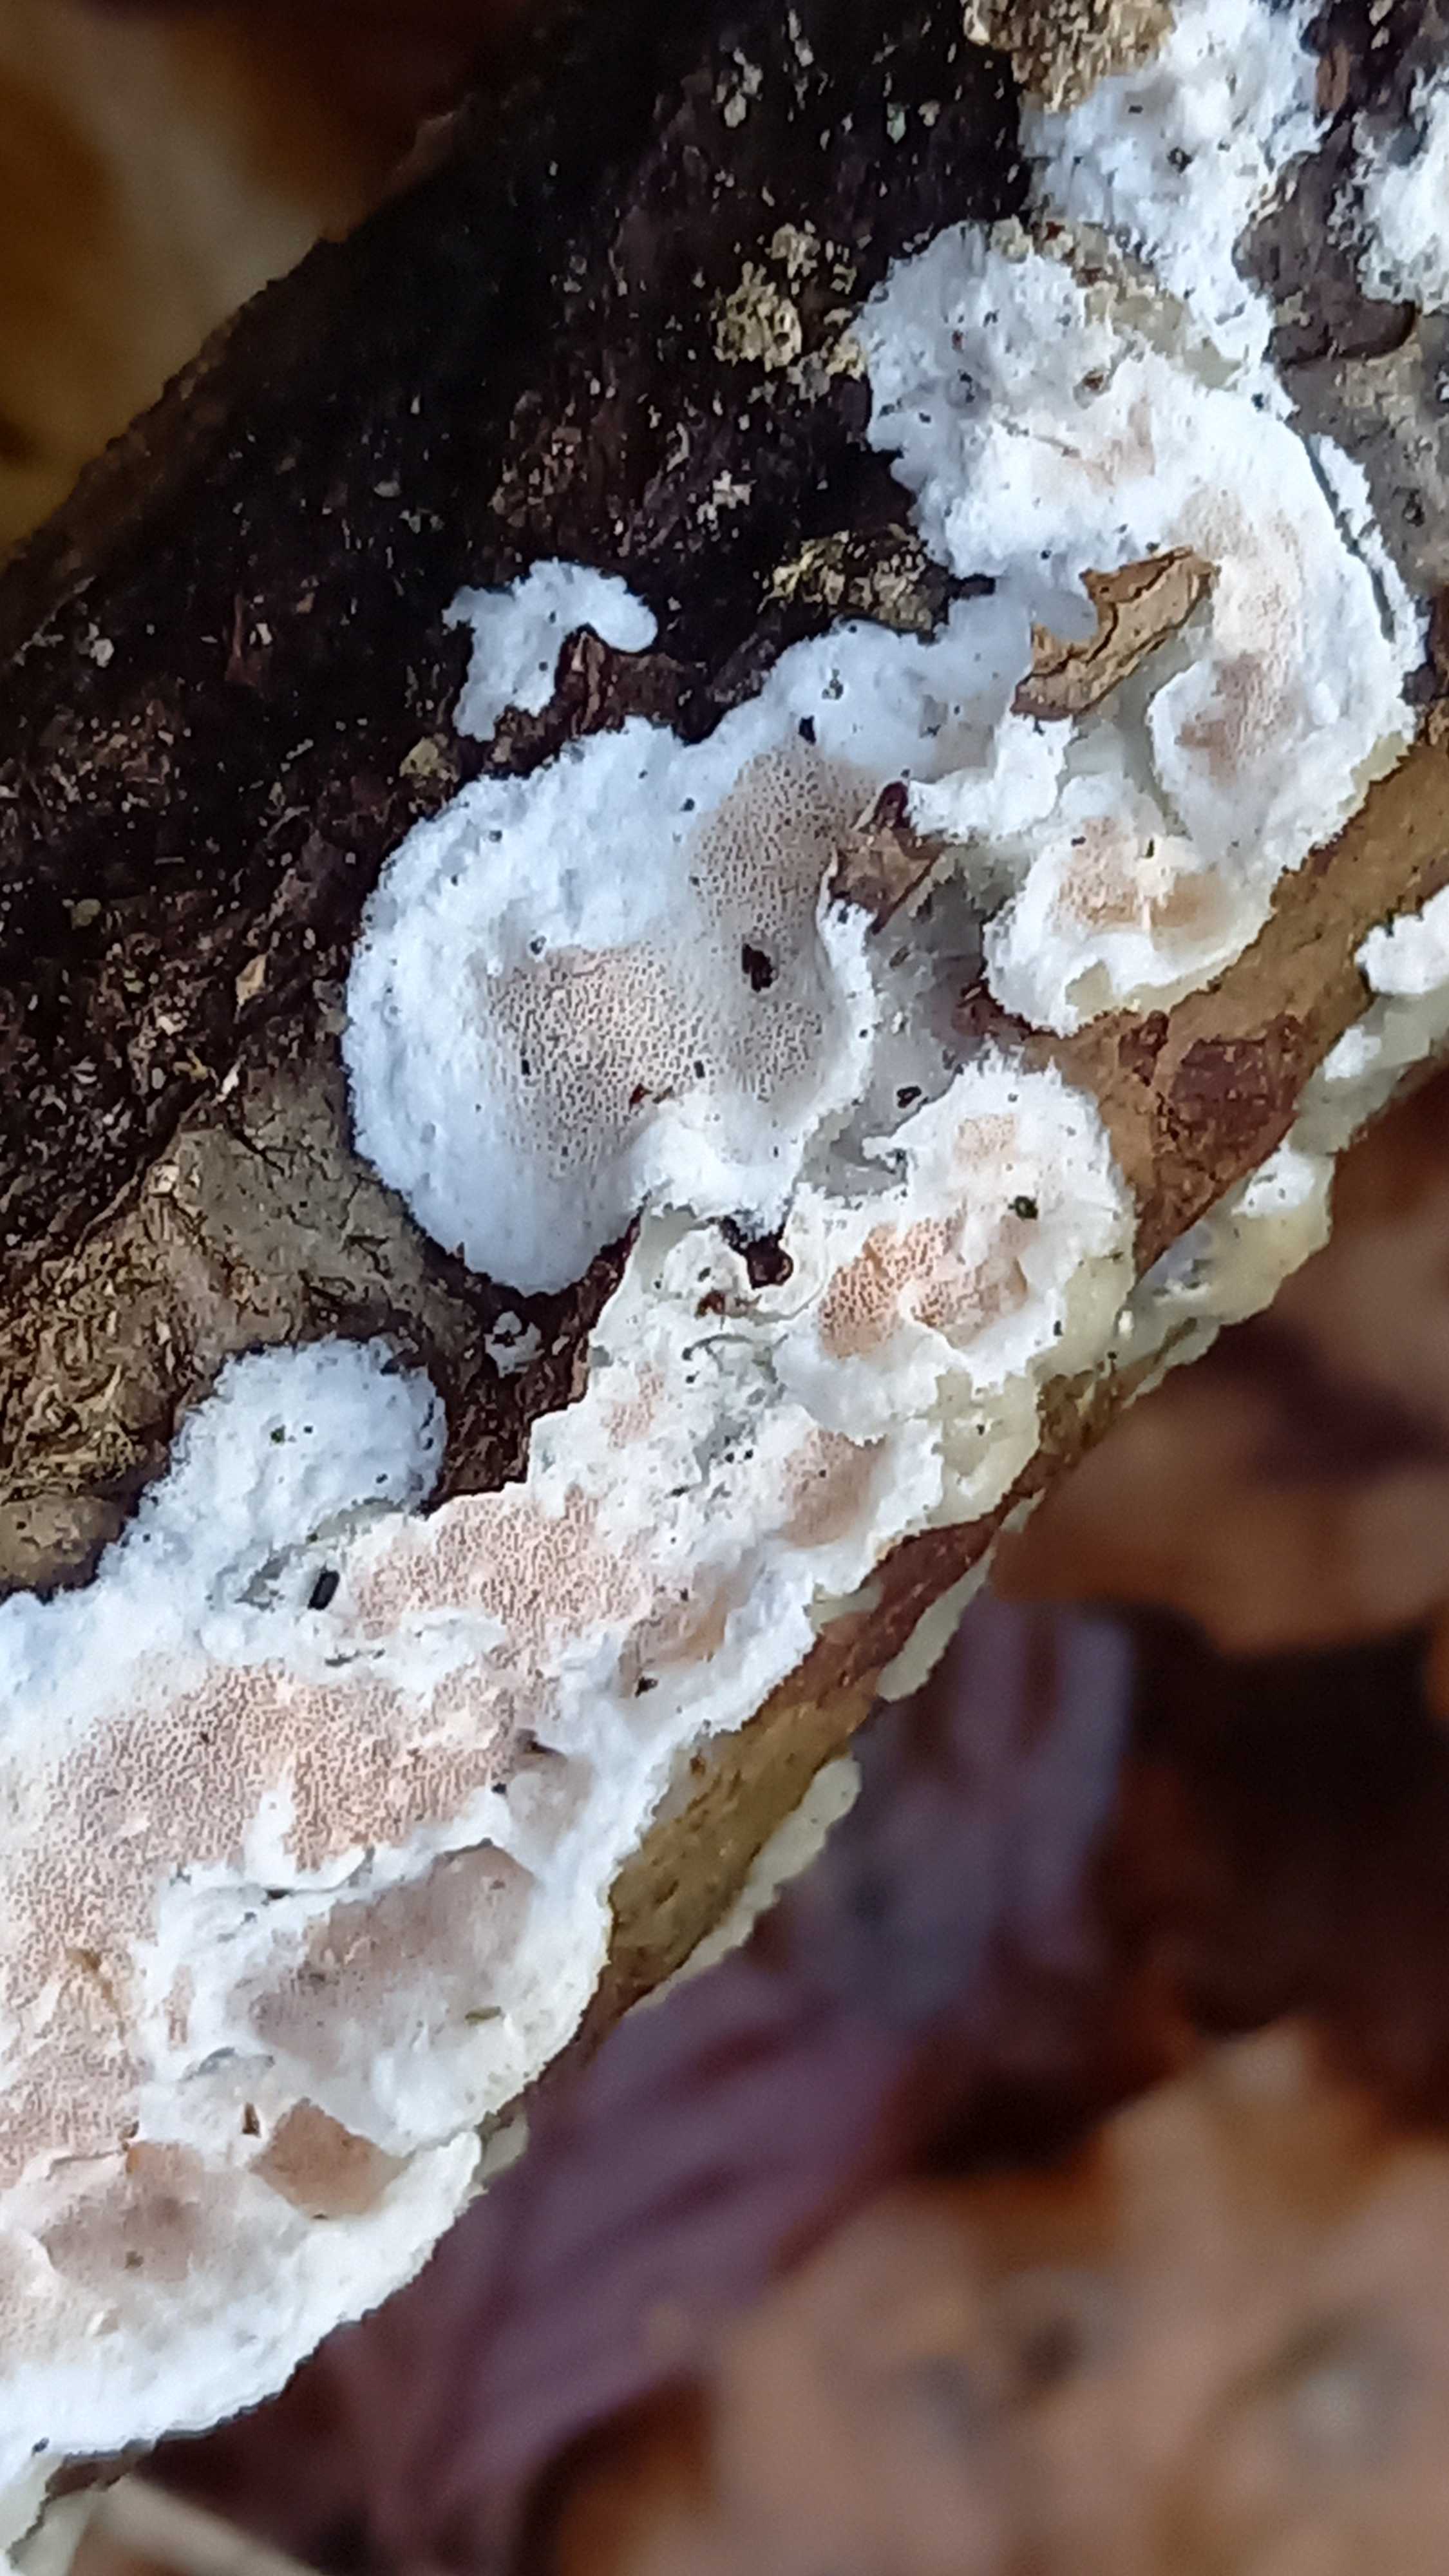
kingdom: Fungi
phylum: Basidiomycota
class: Agaricomycetes
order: Polyporales
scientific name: Polyporales
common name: poresvampordenen
